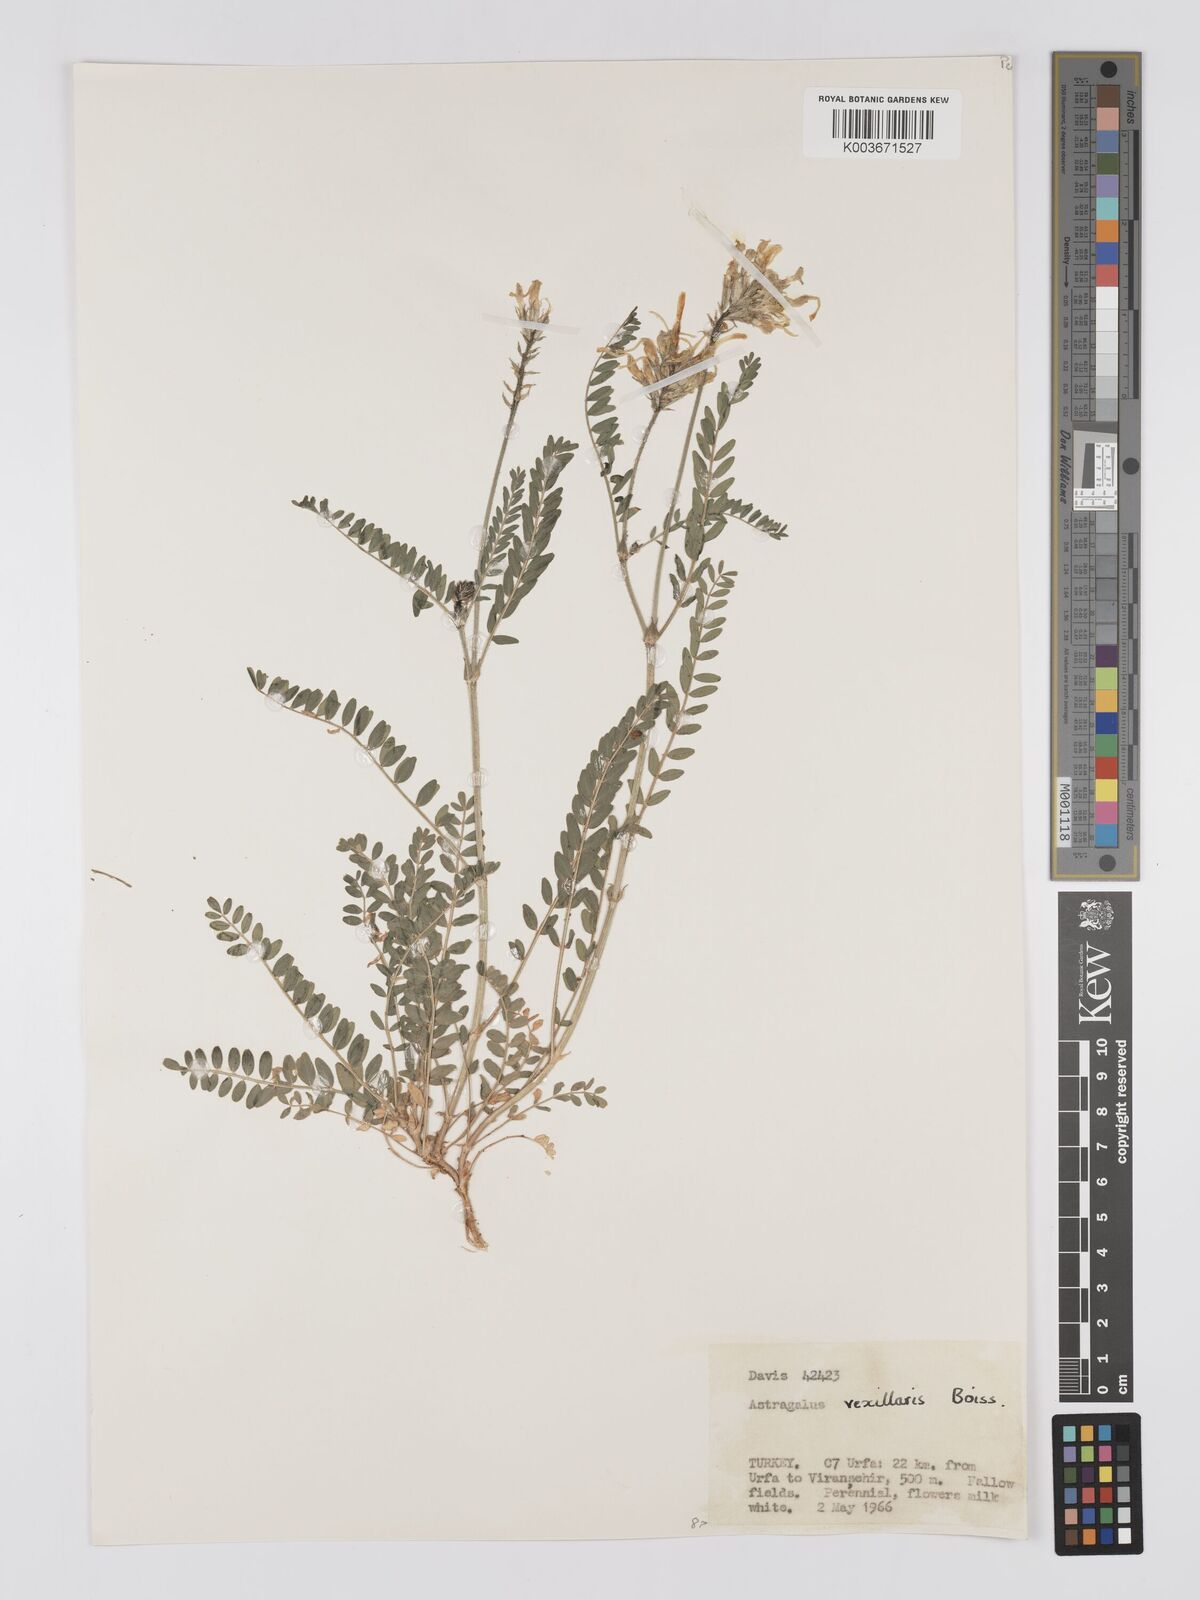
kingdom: Plantae
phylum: Tracheophyta
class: Magnoliopsida
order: Fabales
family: Fabaceae
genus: Astragalus
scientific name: Astragalus vexillaris
